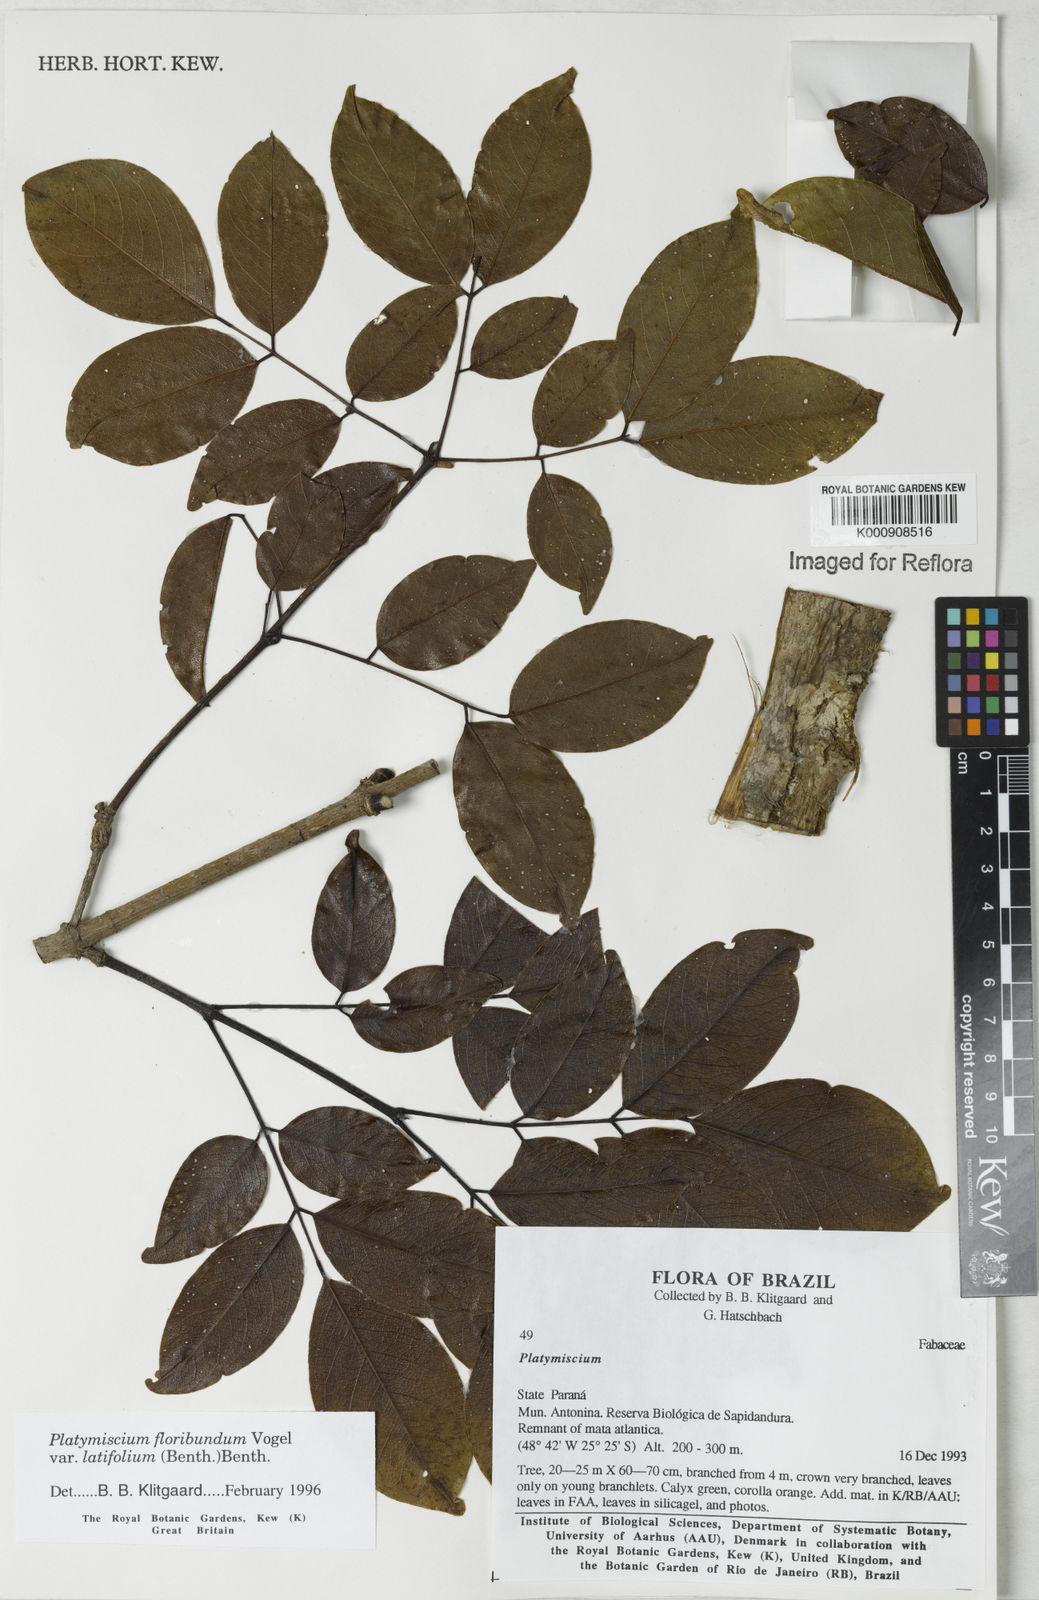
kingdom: Plantae
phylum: Tracheophyta
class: Magnoliopsida
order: Fabales
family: Fabaceae
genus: Platymiscium
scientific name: Platymiscium floribundum
